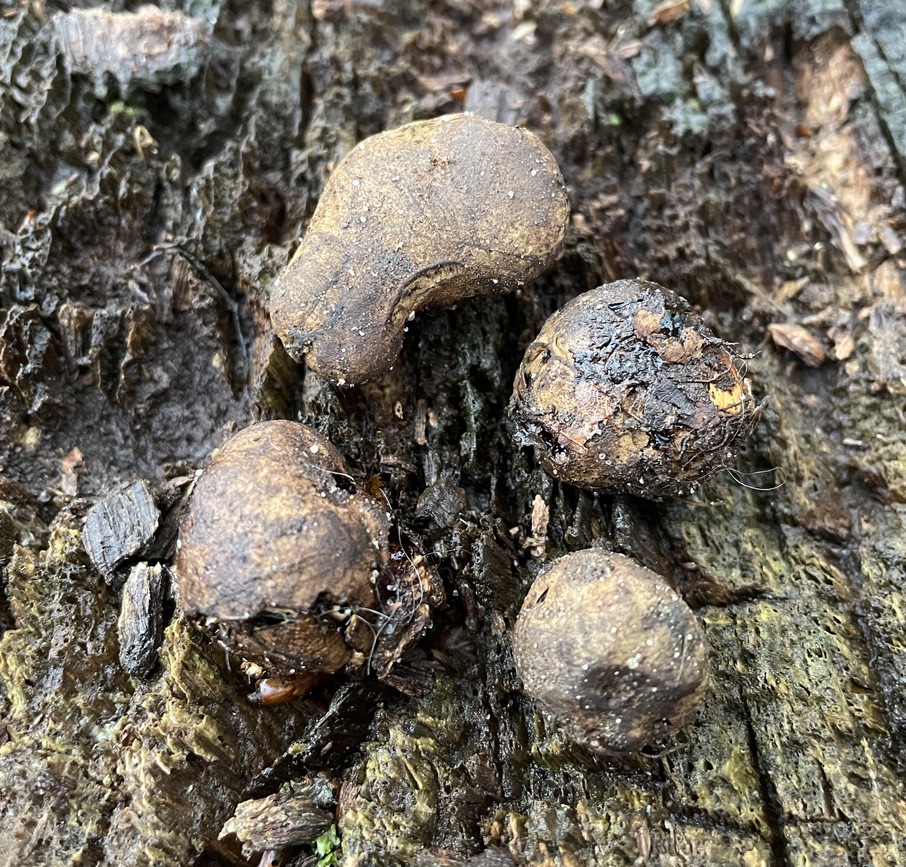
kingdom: Fungi
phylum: Basidiomycota
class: Agaricomycetes
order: Boletales
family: Paxillaceae
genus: Melanogaster
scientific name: Melanogaster ambiguus
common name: lille slimtrøffel
